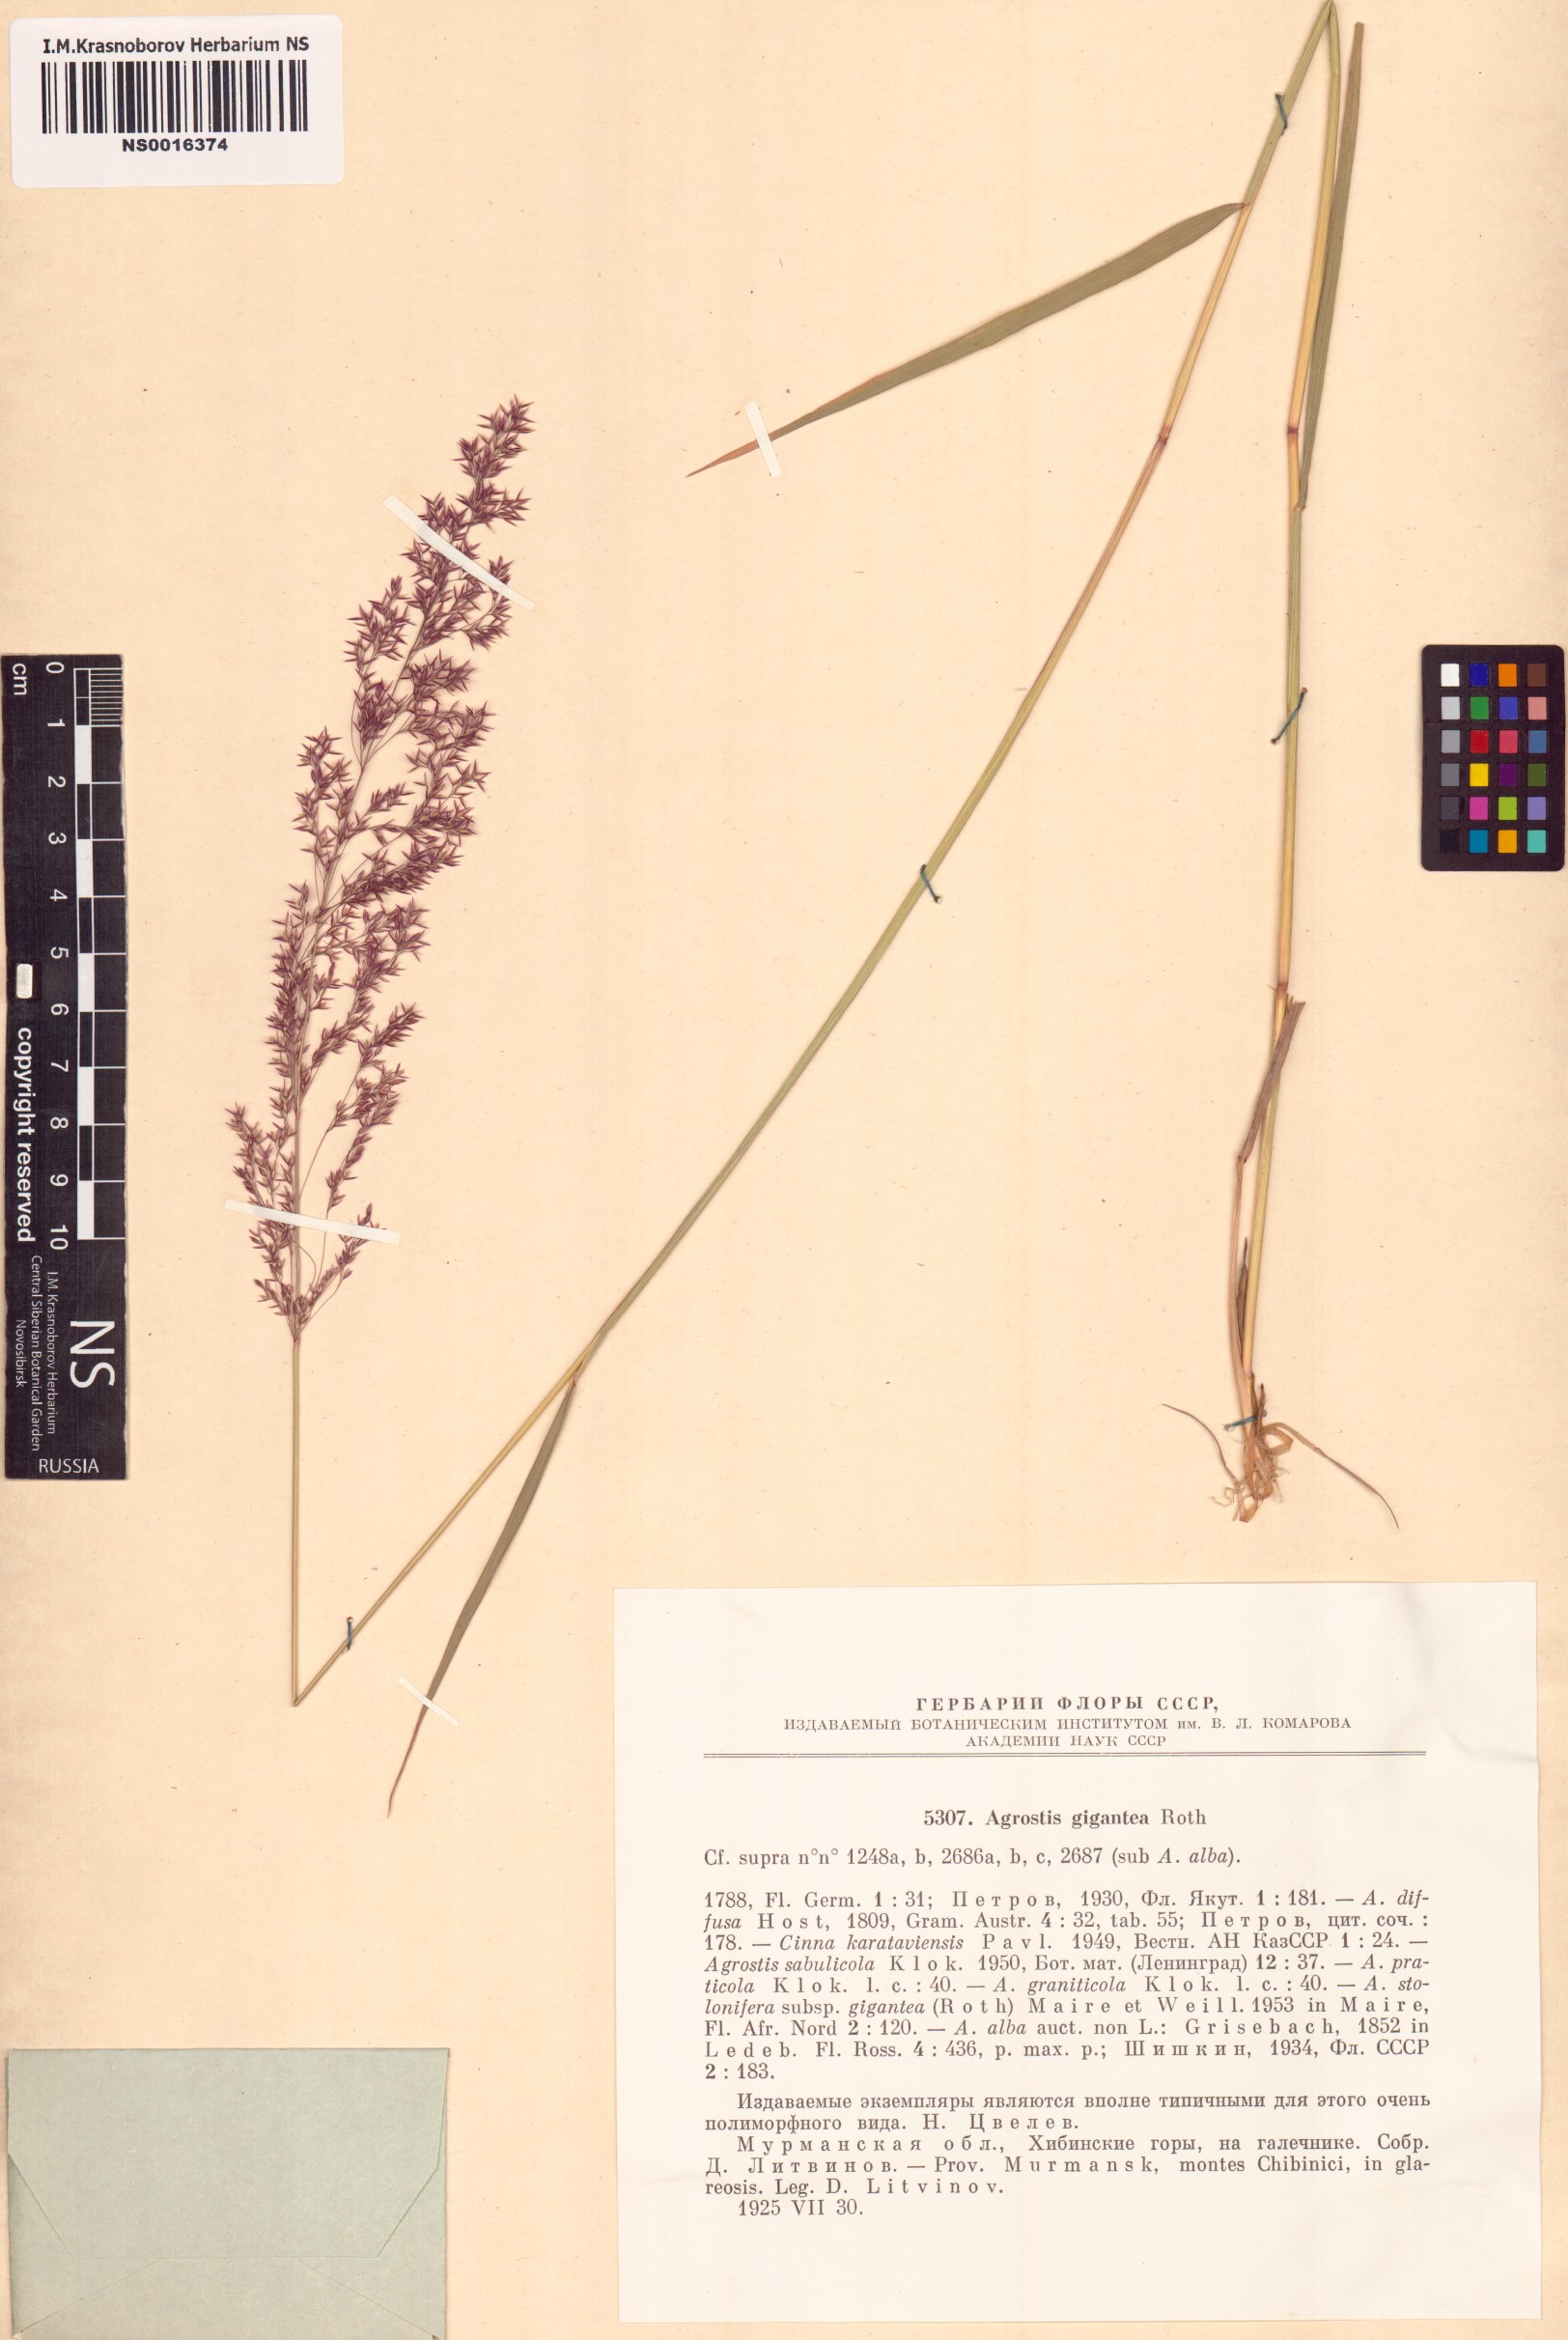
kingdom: Plantae
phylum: Tracheophyta
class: Liliopsida
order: Poales
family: Poaceae
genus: Agrostis
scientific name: Agrostis gigantea
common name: Black bent
